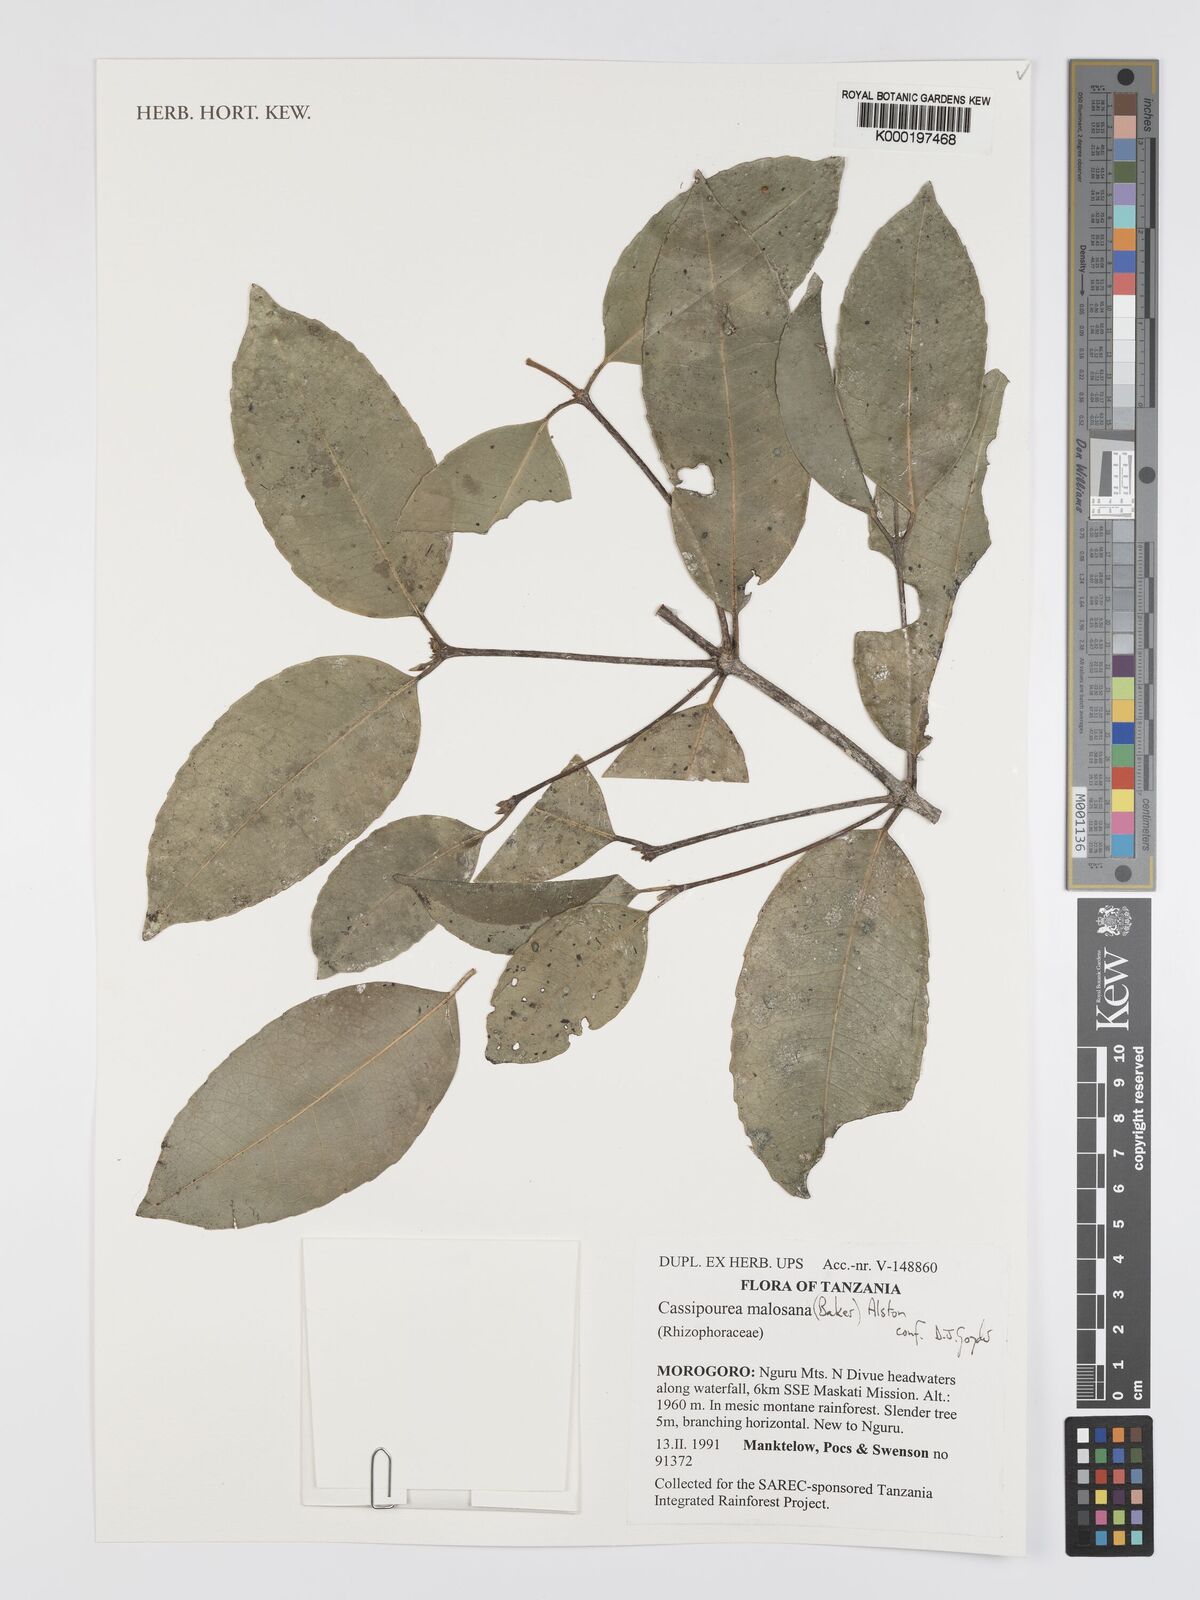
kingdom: Plantae
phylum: Tracheophyta
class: Magnoliopsida
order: Malpighiales
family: Rhizophoraceae
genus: Cassipourea
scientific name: Cassipourea malosana
